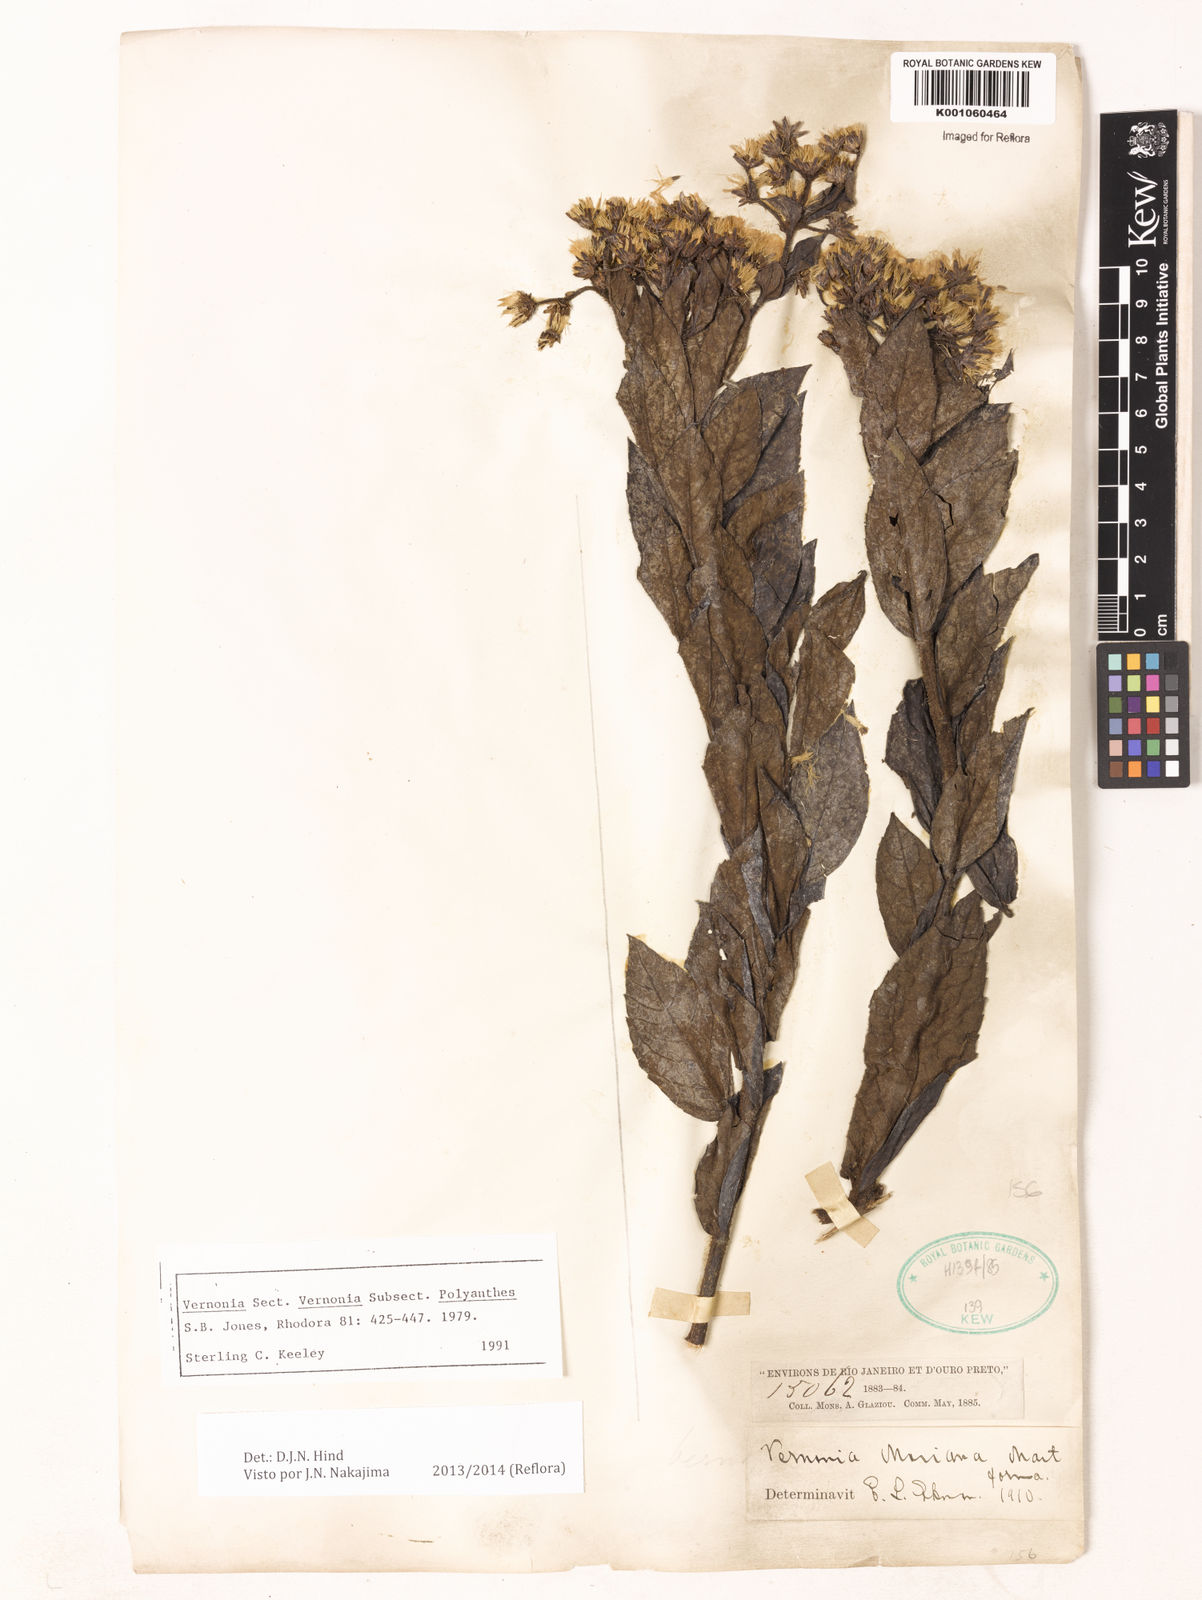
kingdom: Plantae
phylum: Tracheophyta
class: Magnoliopsida
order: Asterales
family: Asteraceae
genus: Vernonanthura
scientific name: Vernonanthura cymosa
